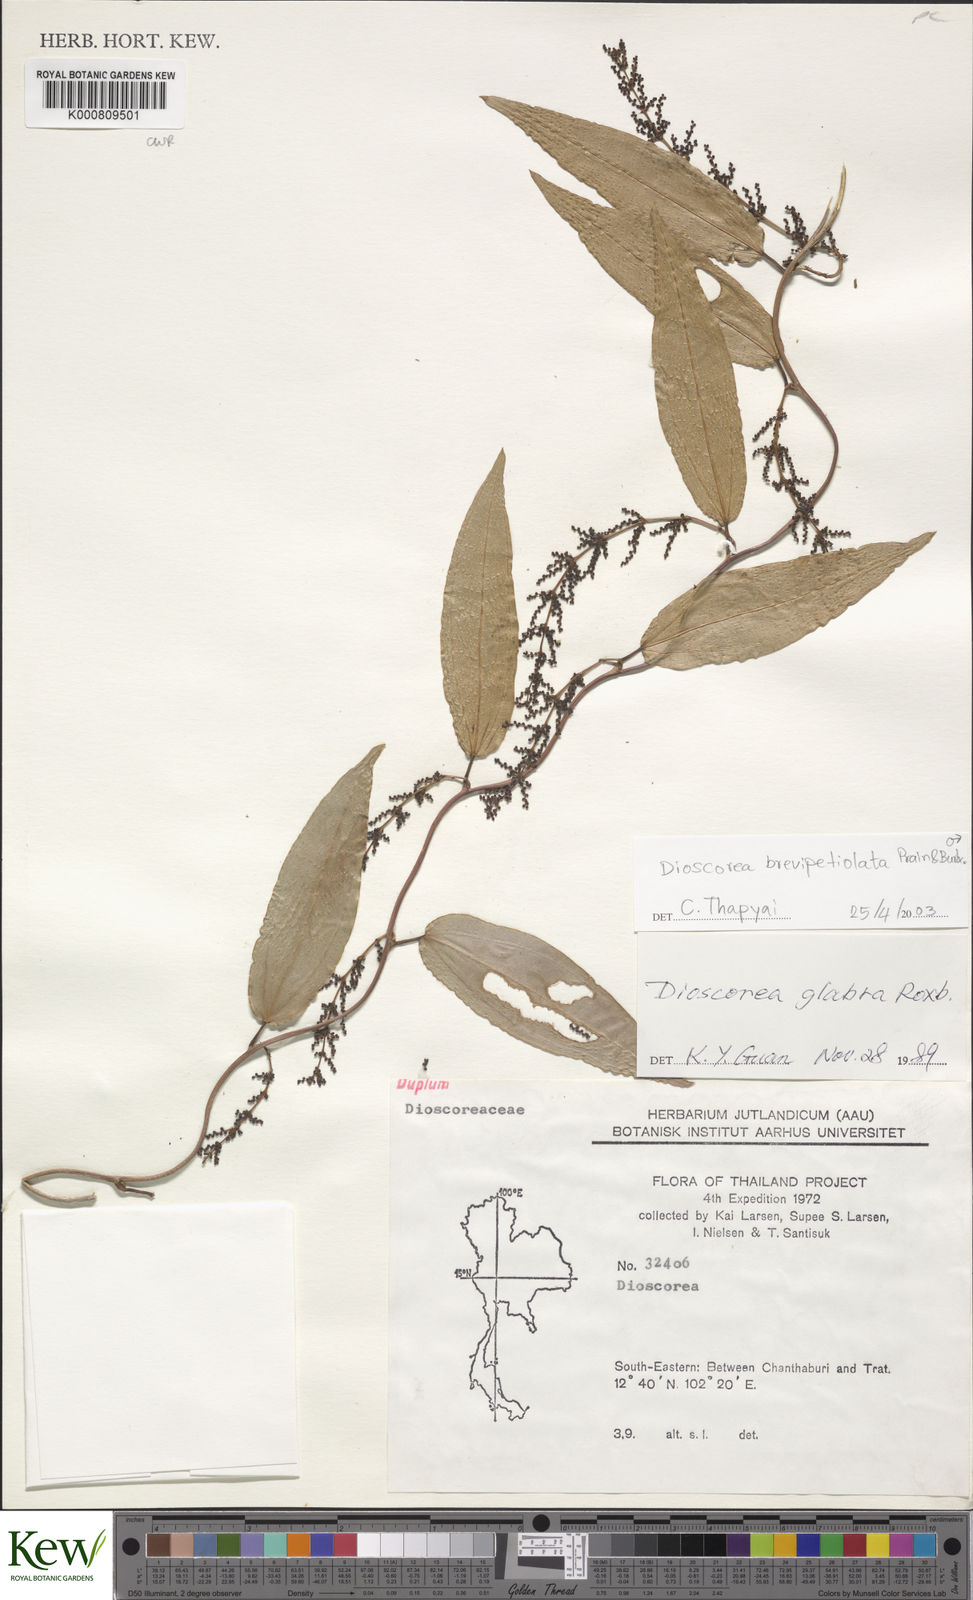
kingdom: Plantae
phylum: Tracheophyta
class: Liliopsida
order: Dioscoreales
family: Dioscoreaceae
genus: Dioscorea
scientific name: Dioscorea brevipetiolata
